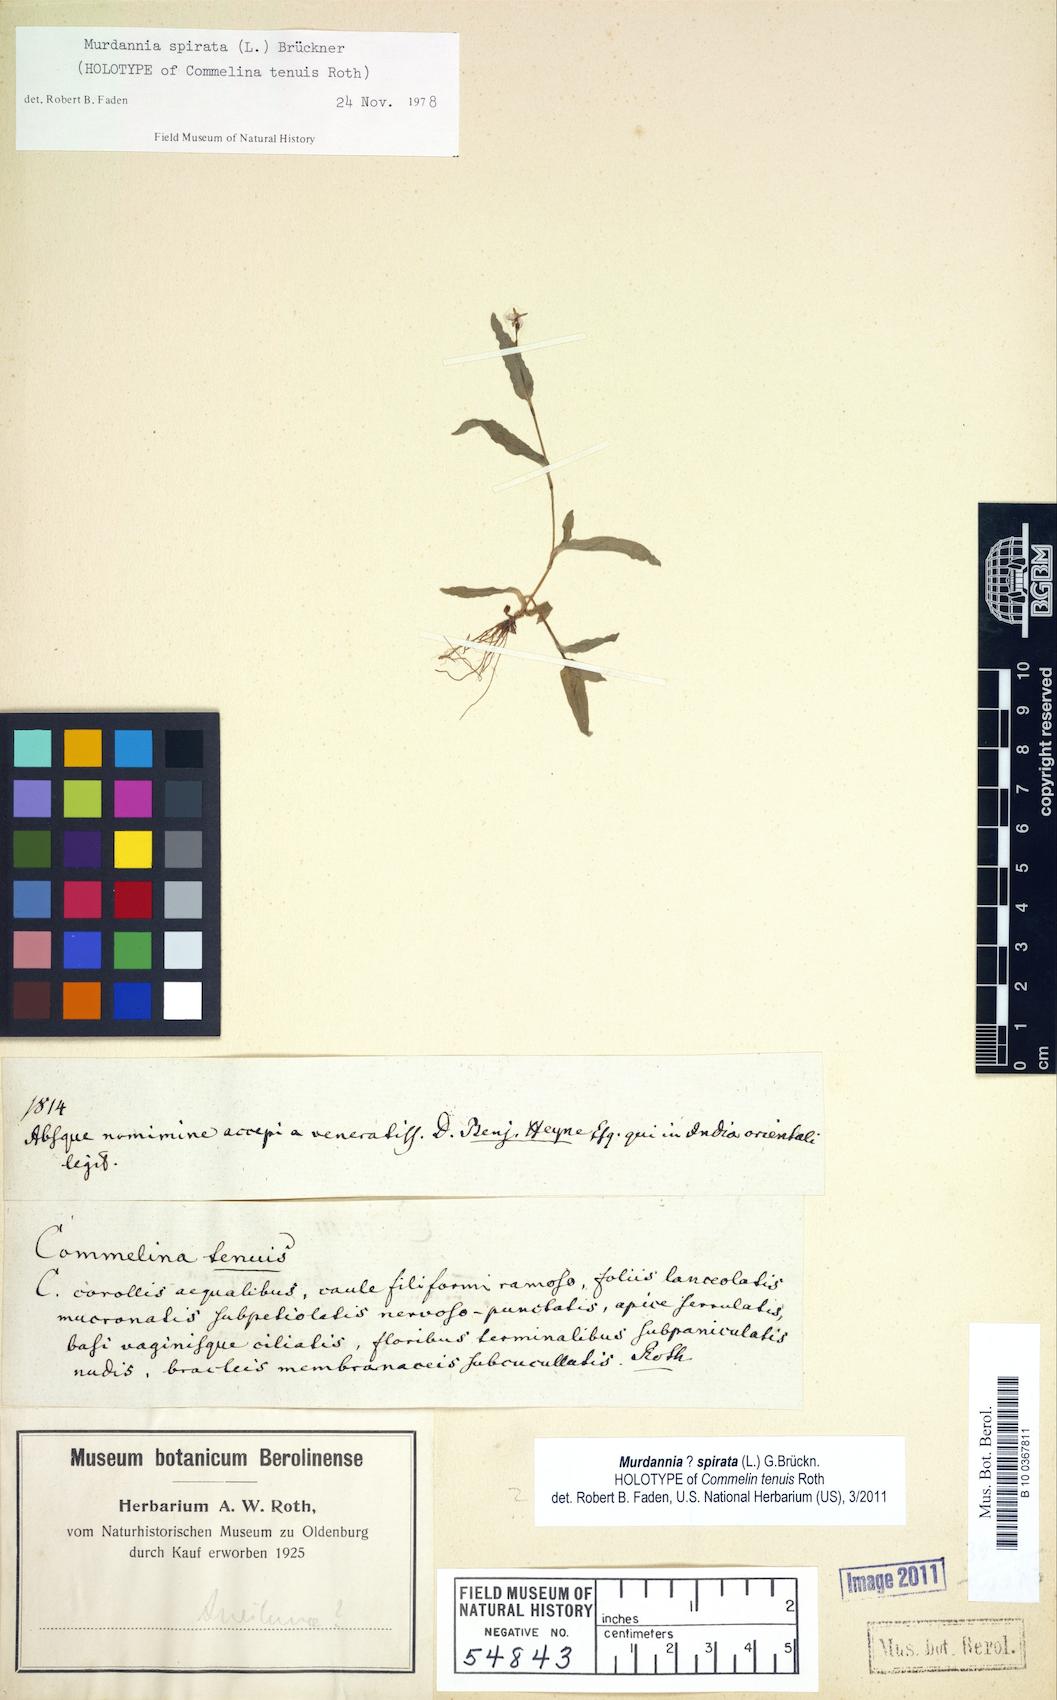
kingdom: Plantae
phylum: Tracheophyta
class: Liliopsida
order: Commelinales
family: Commelinaceae
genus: Murdannia
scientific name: Murdannia spirata
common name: Asiatic dewflower
